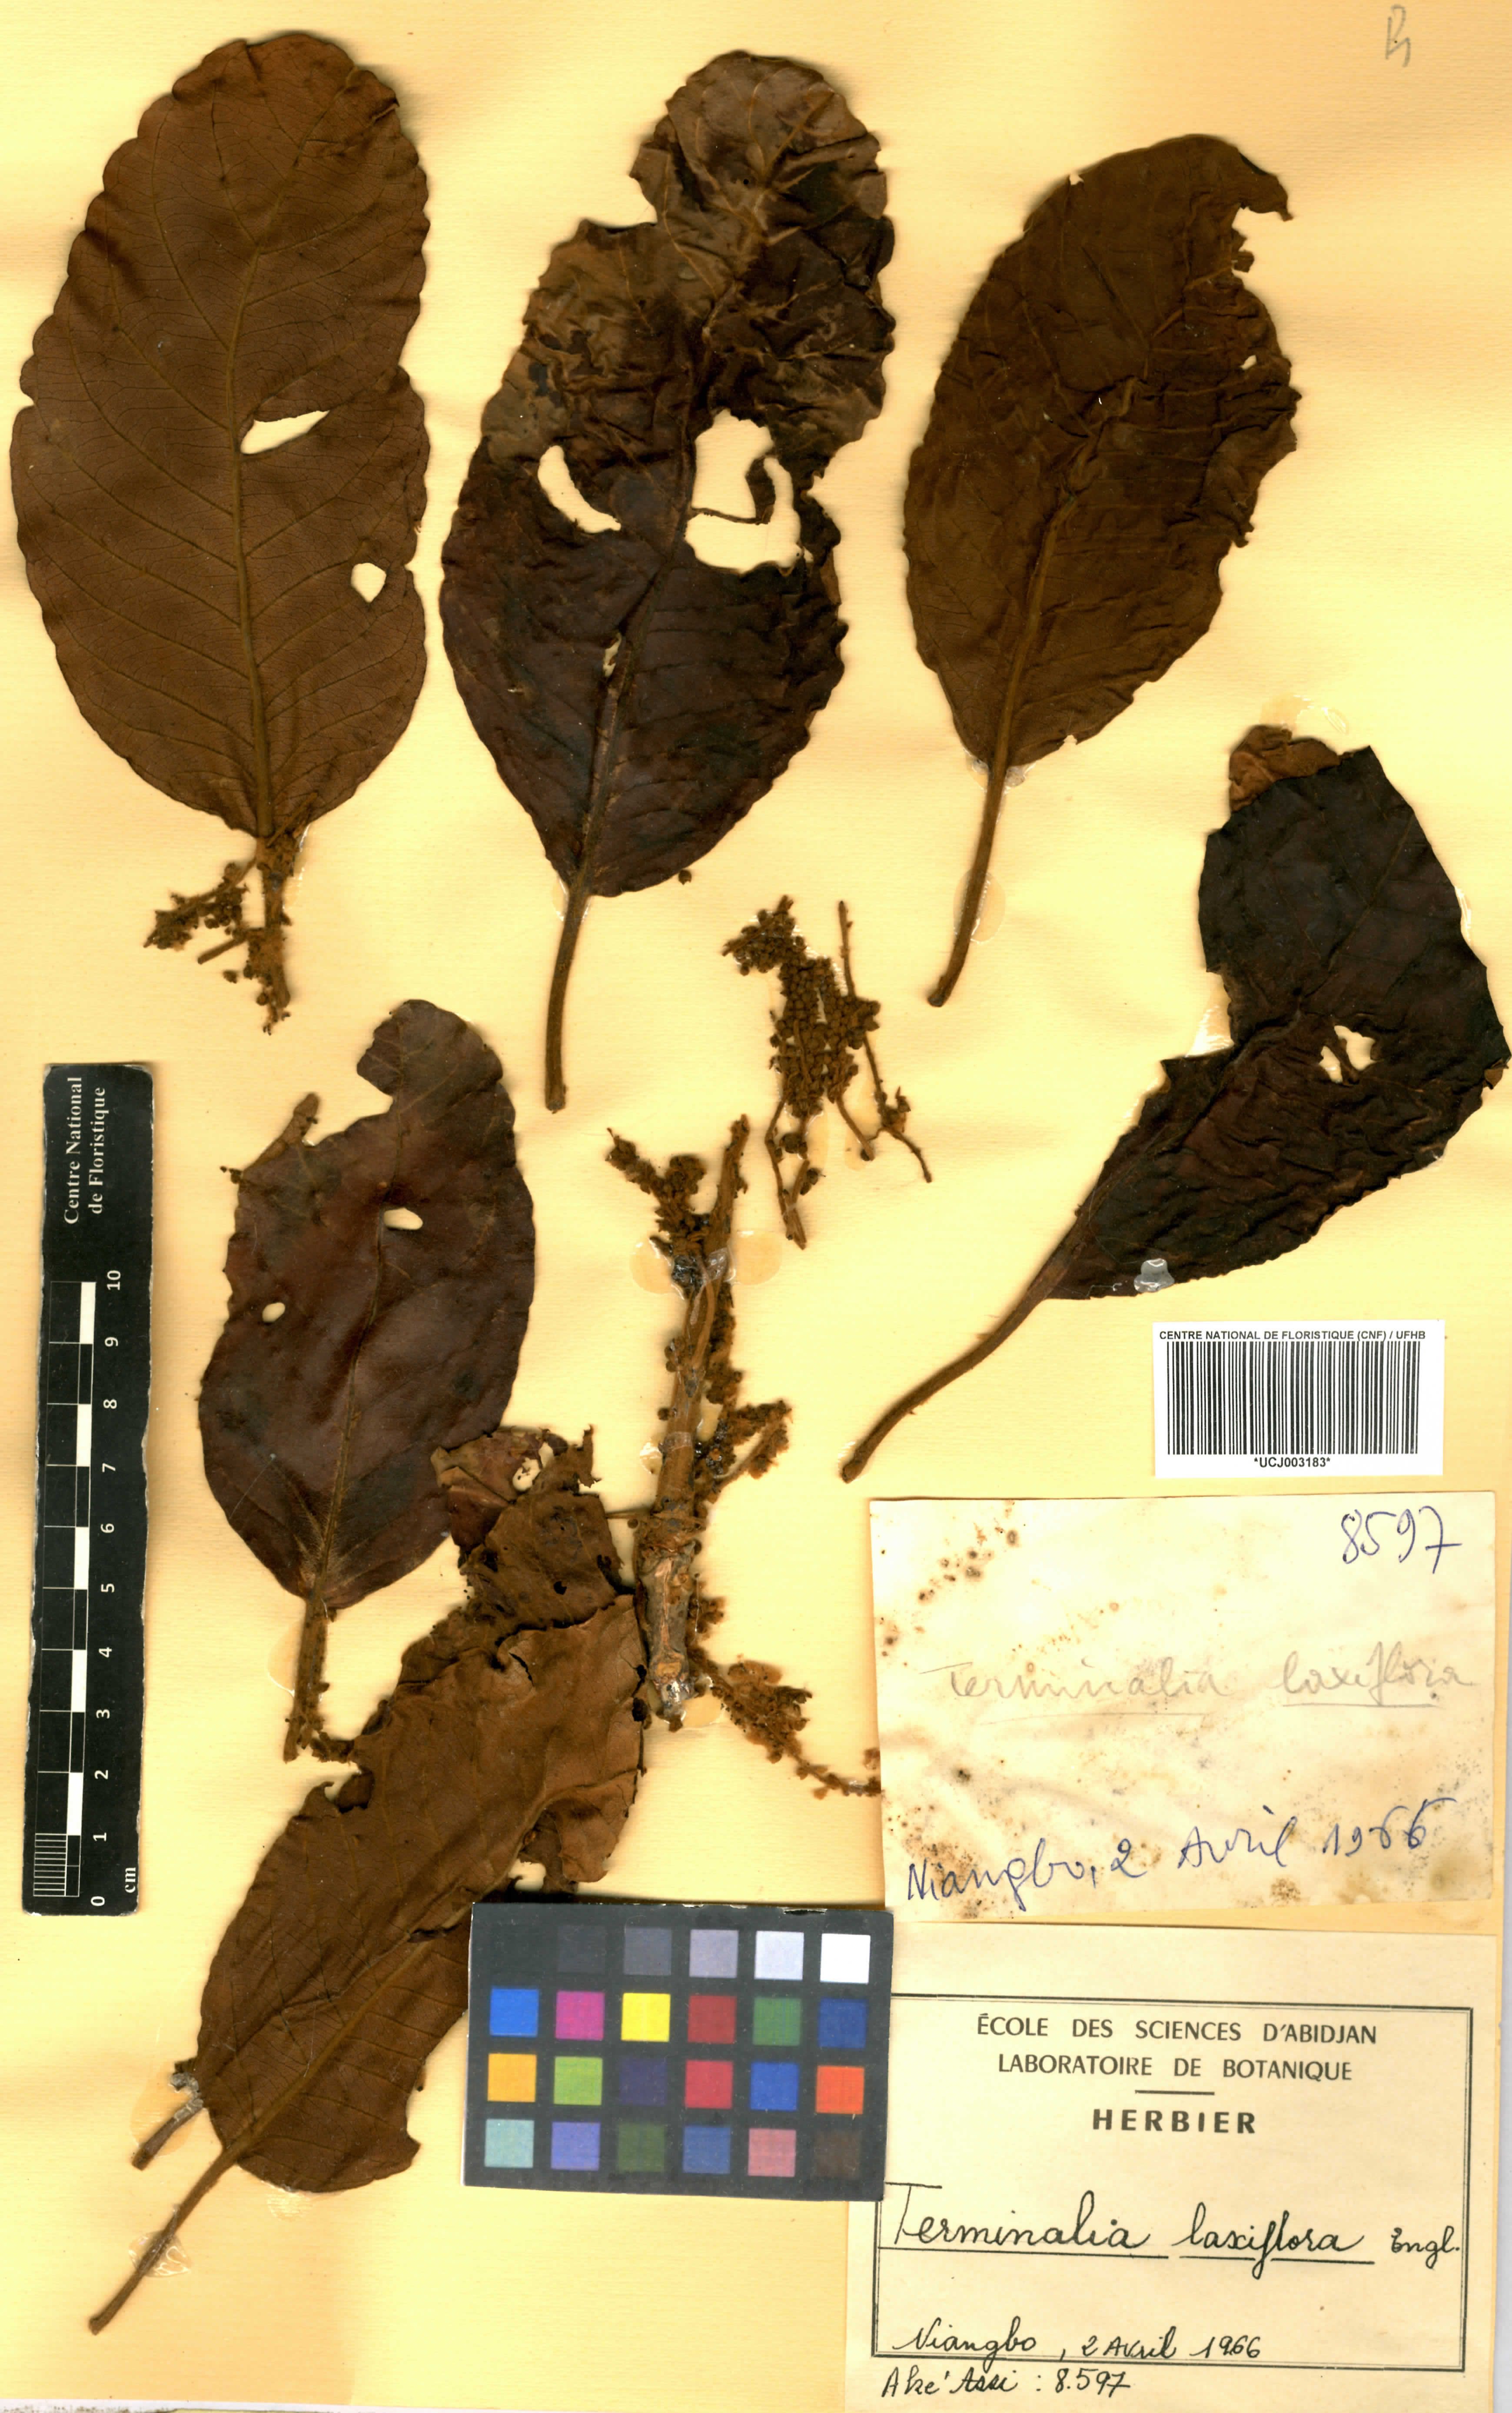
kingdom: Plantae
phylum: Tracheophyta
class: Magnoliopsida
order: Myrtales
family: Combretaceae
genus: Terminalia
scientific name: Terminalia laxiflora
